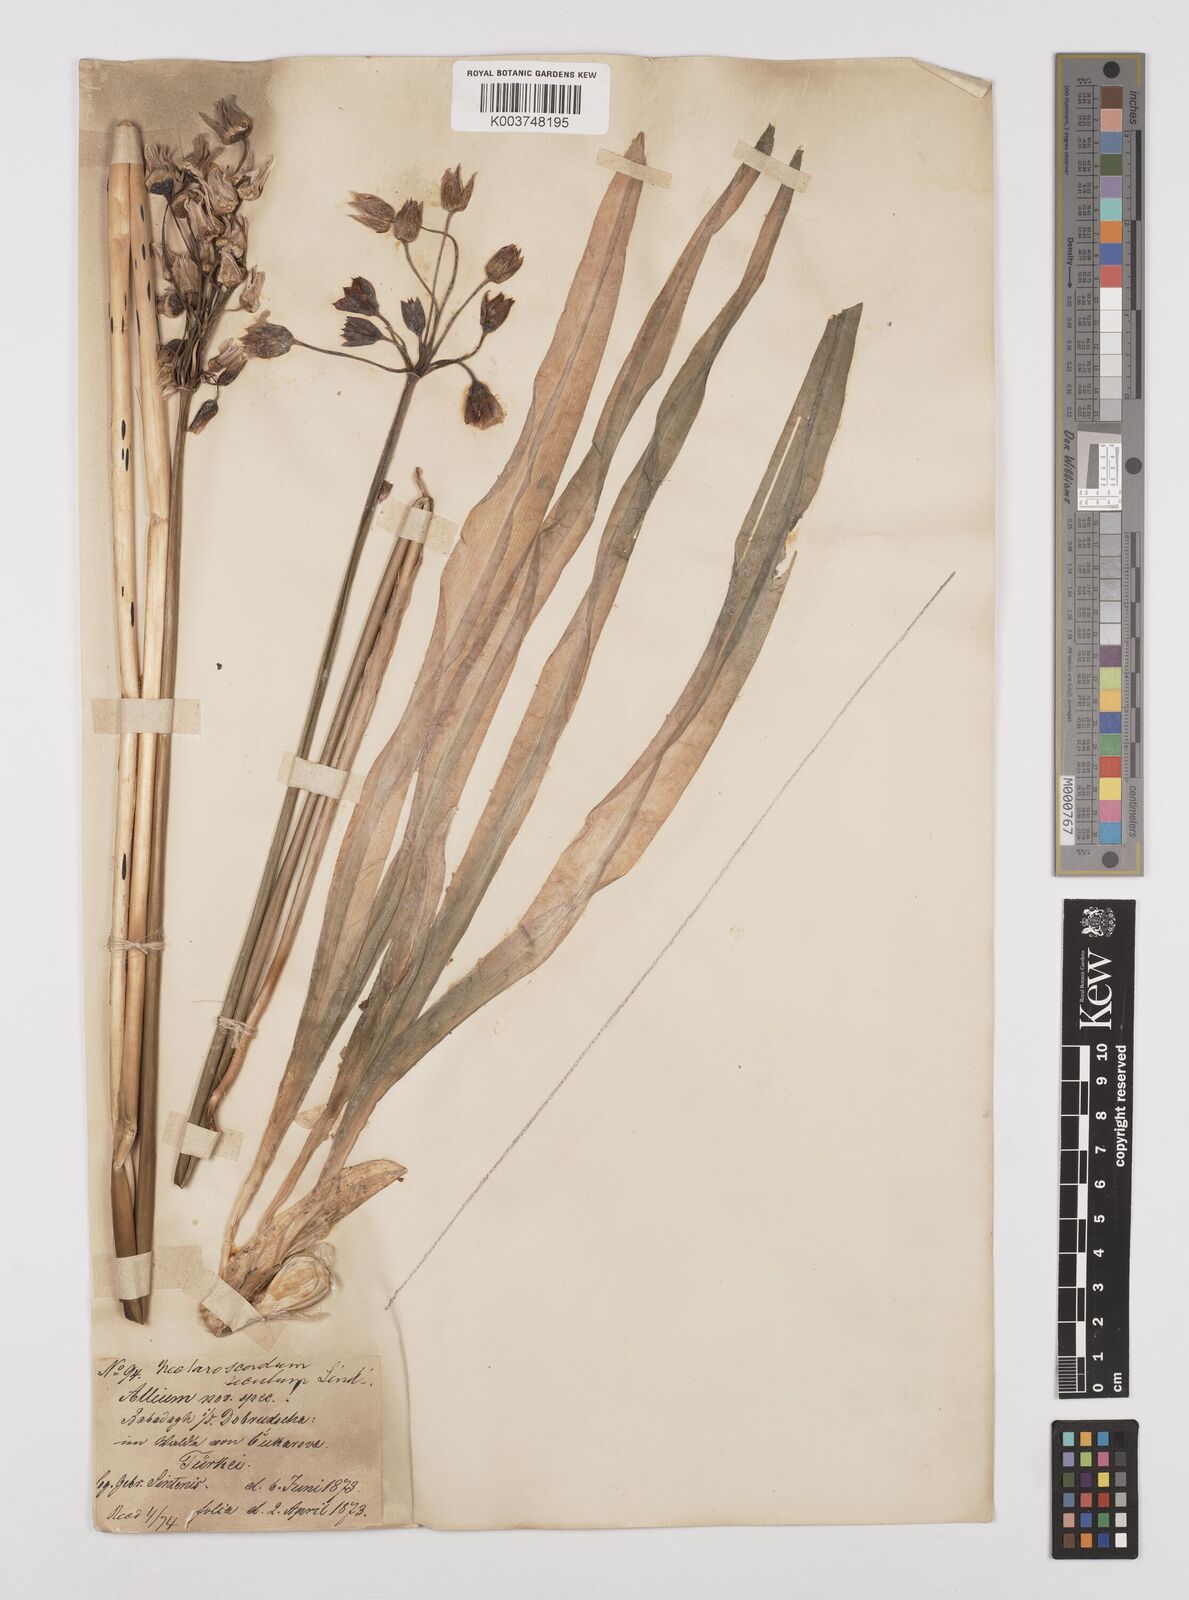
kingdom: Plantae
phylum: Tracheophyta
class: Liliopsida
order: Asparagales
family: Amaryllidaceae
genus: Allium
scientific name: Allium siculum
